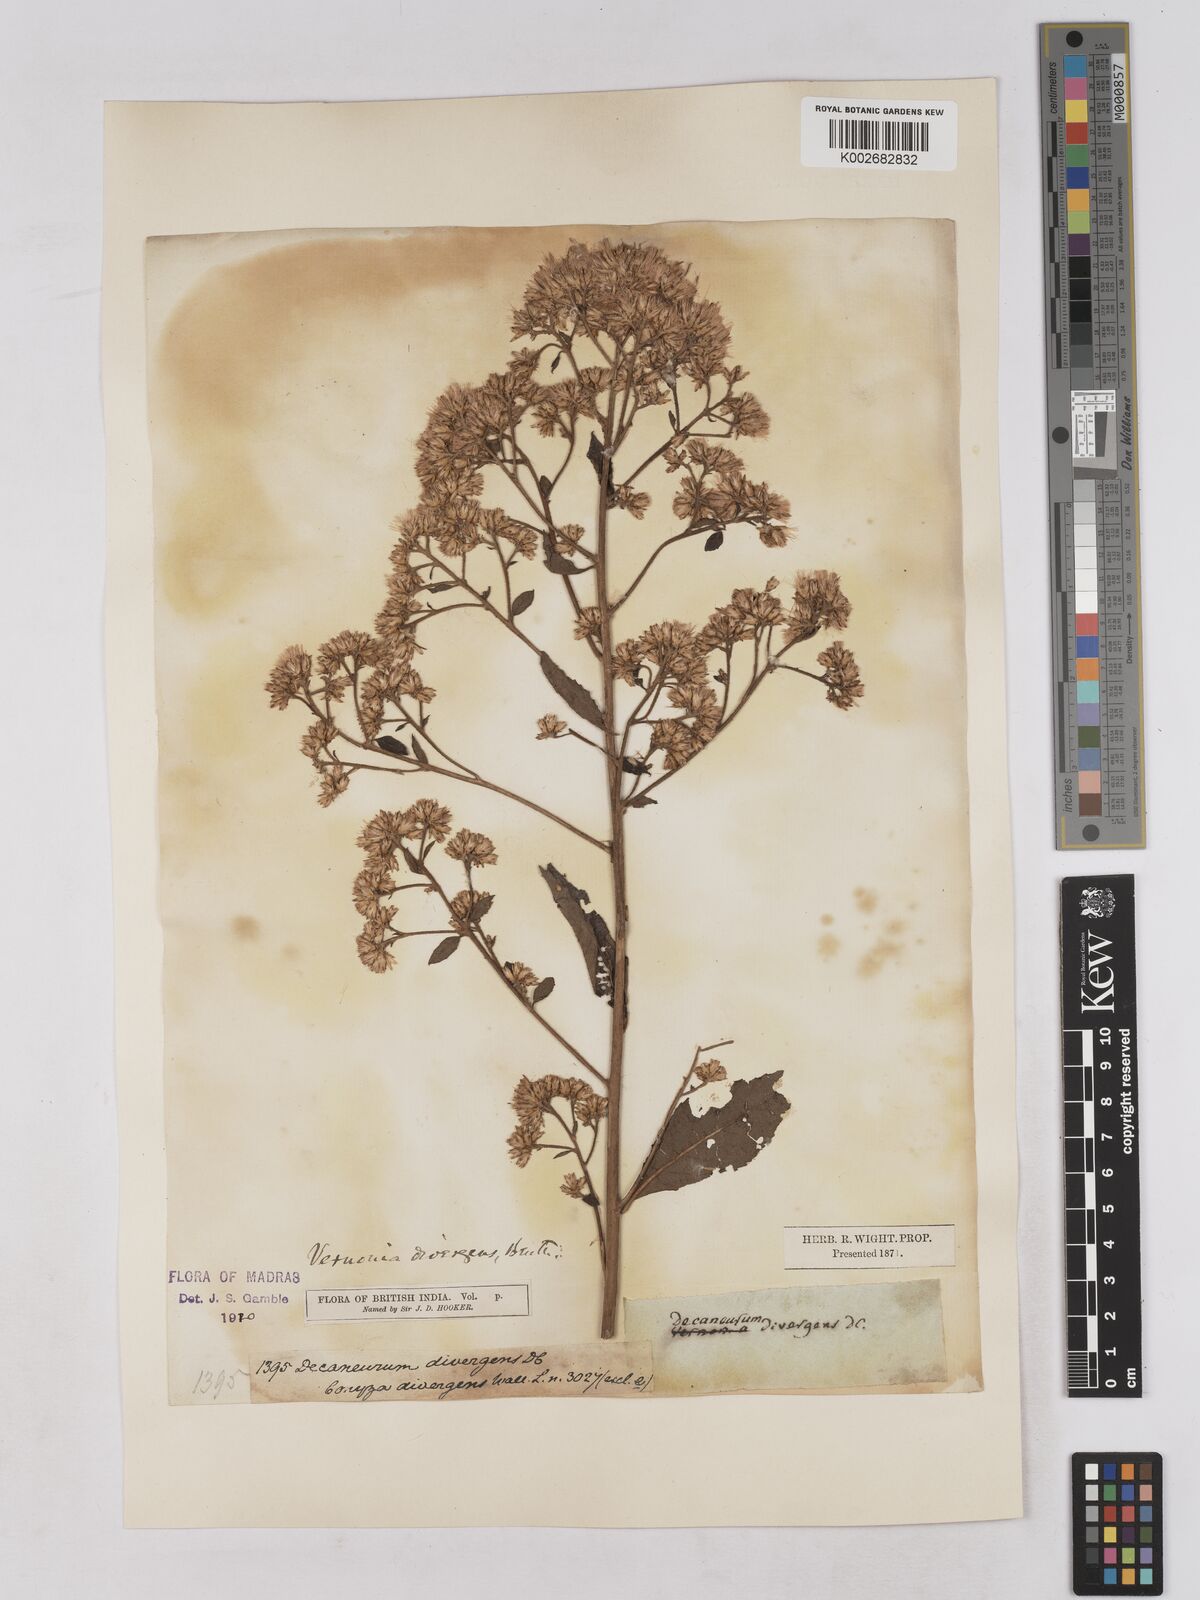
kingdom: Plantae
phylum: Tracheophyta
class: Magnoliopsida
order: Asterales
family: Asteraceae
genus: Acilepis
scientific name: Acilepis divergens
